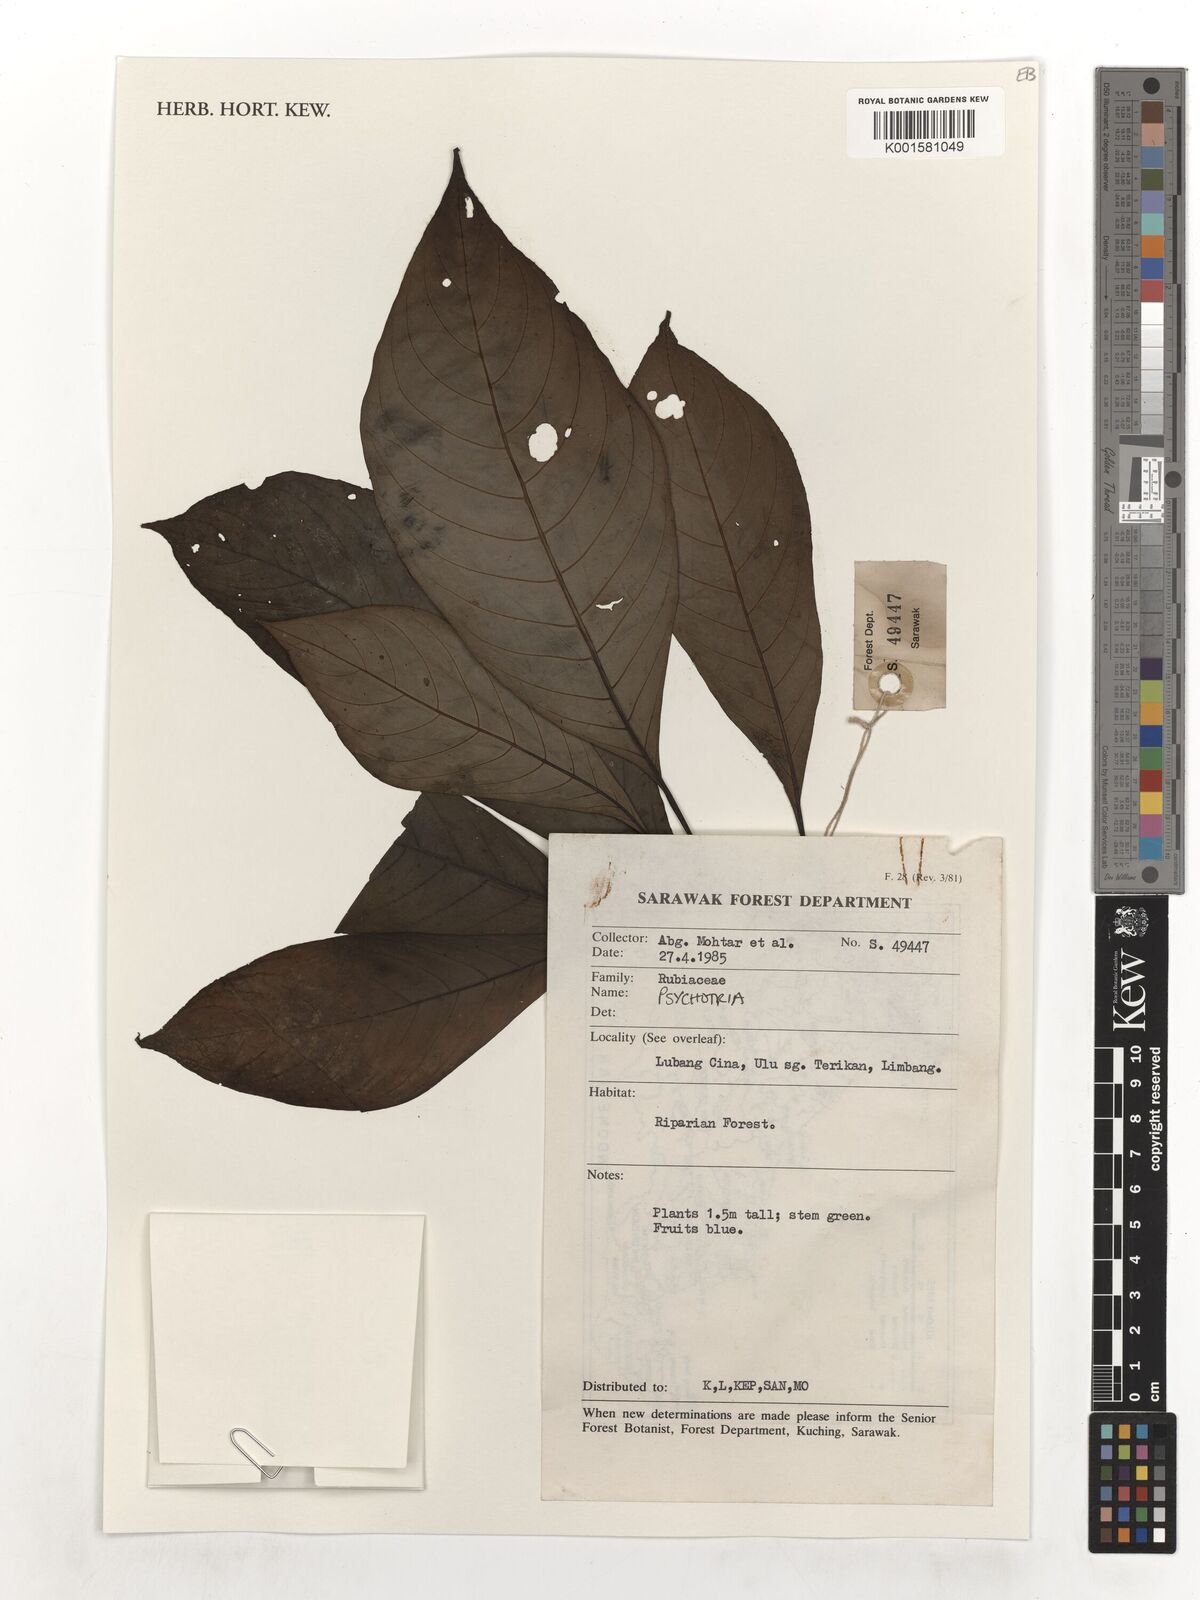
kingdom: Plantae
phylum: Tracheophyta
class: Magnoliopsida
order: Gentianales
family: Rubiaceae
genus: Psychotria
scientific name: Psychotria
